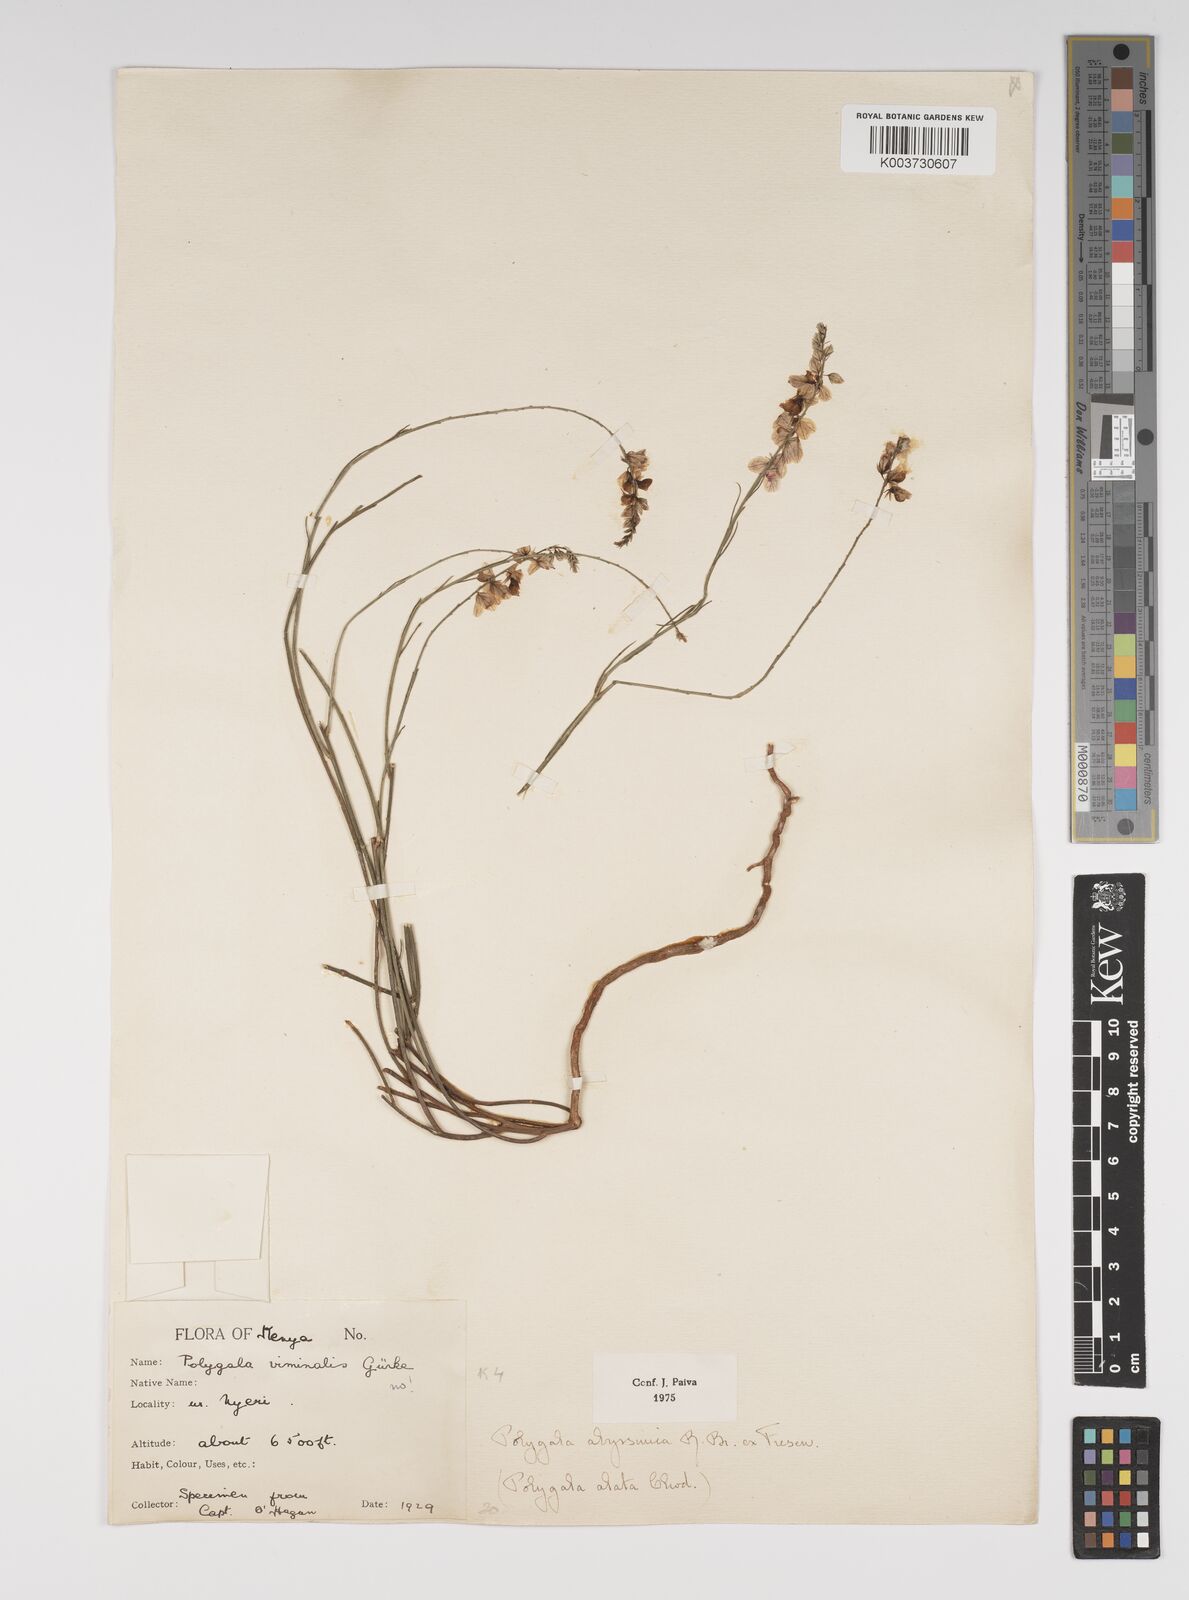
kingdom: Plantae
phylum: Tracheophyta
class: Magnoliopsida
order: Fabales
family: Polygalaceae
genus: Polygala
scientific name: Polygala abyssinica
